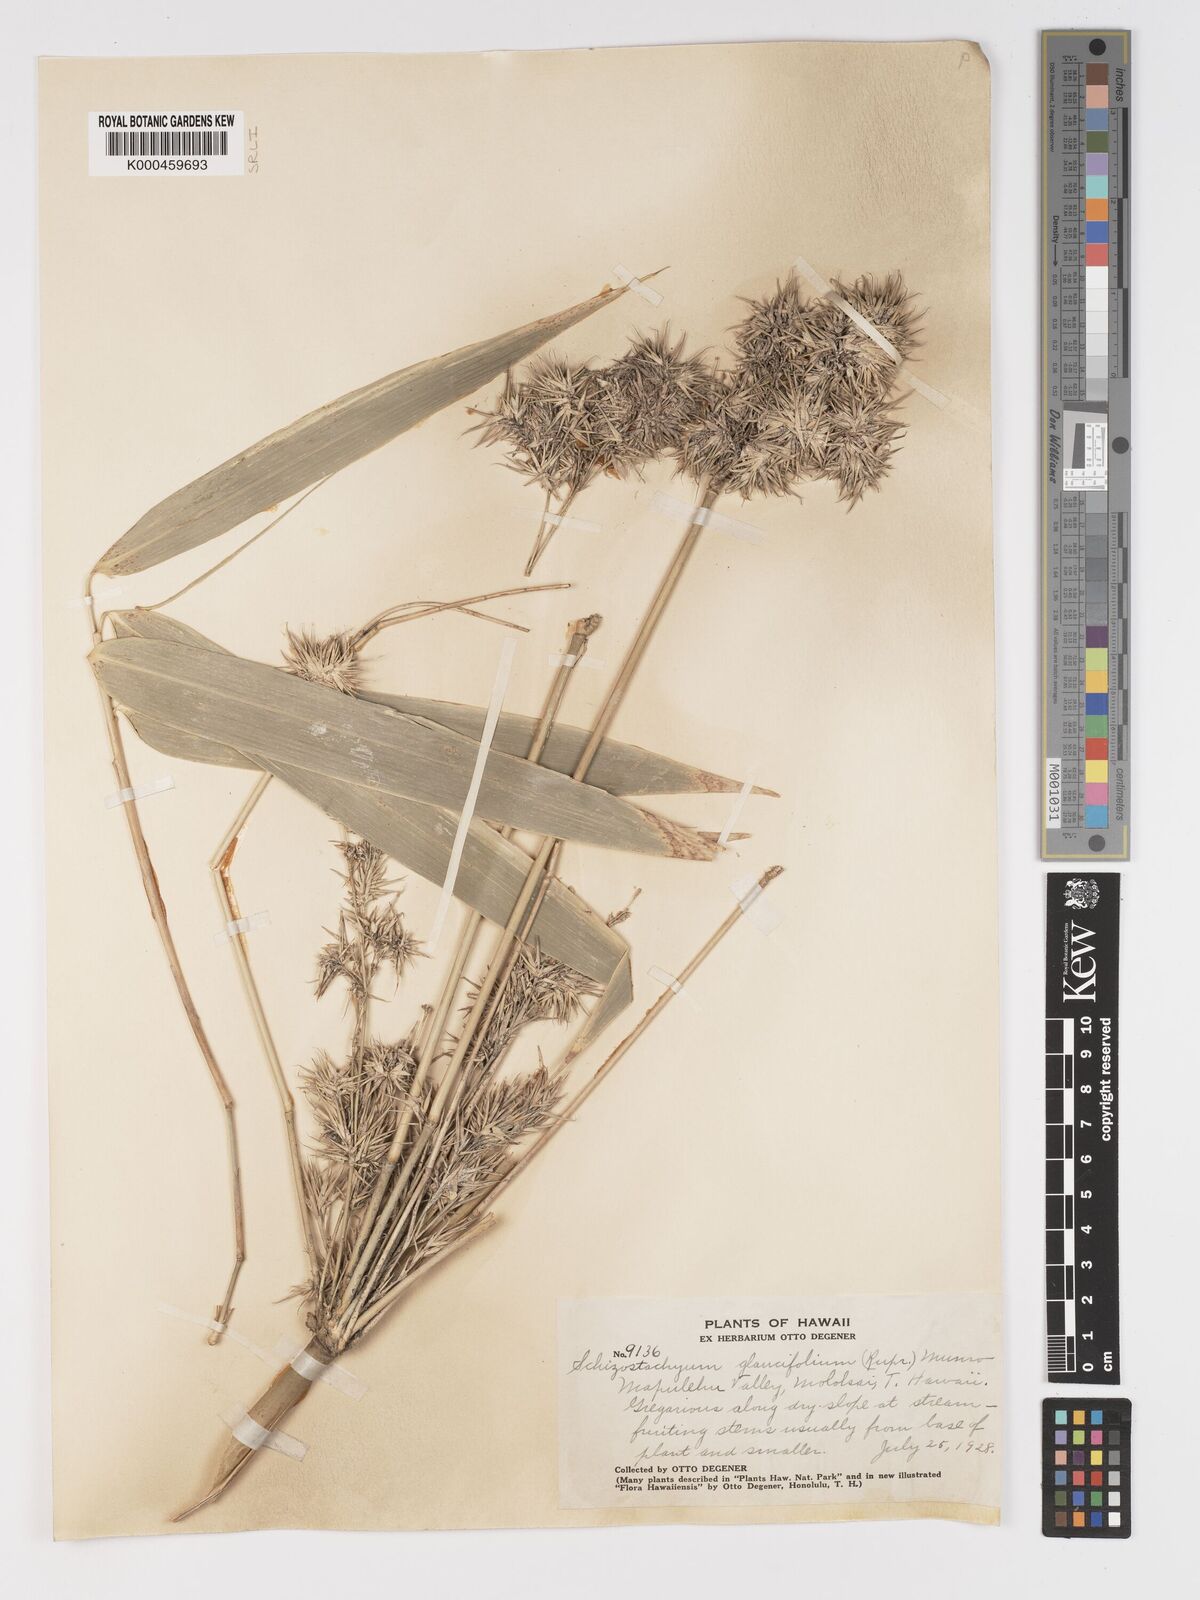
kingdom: Plantae
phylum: Tracheophyta
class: Liliopsida
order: Poales
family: Poaceae
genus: Schizostachyum
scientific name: Schizostachyum glaucifolium
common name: Polynesian 'ohe
